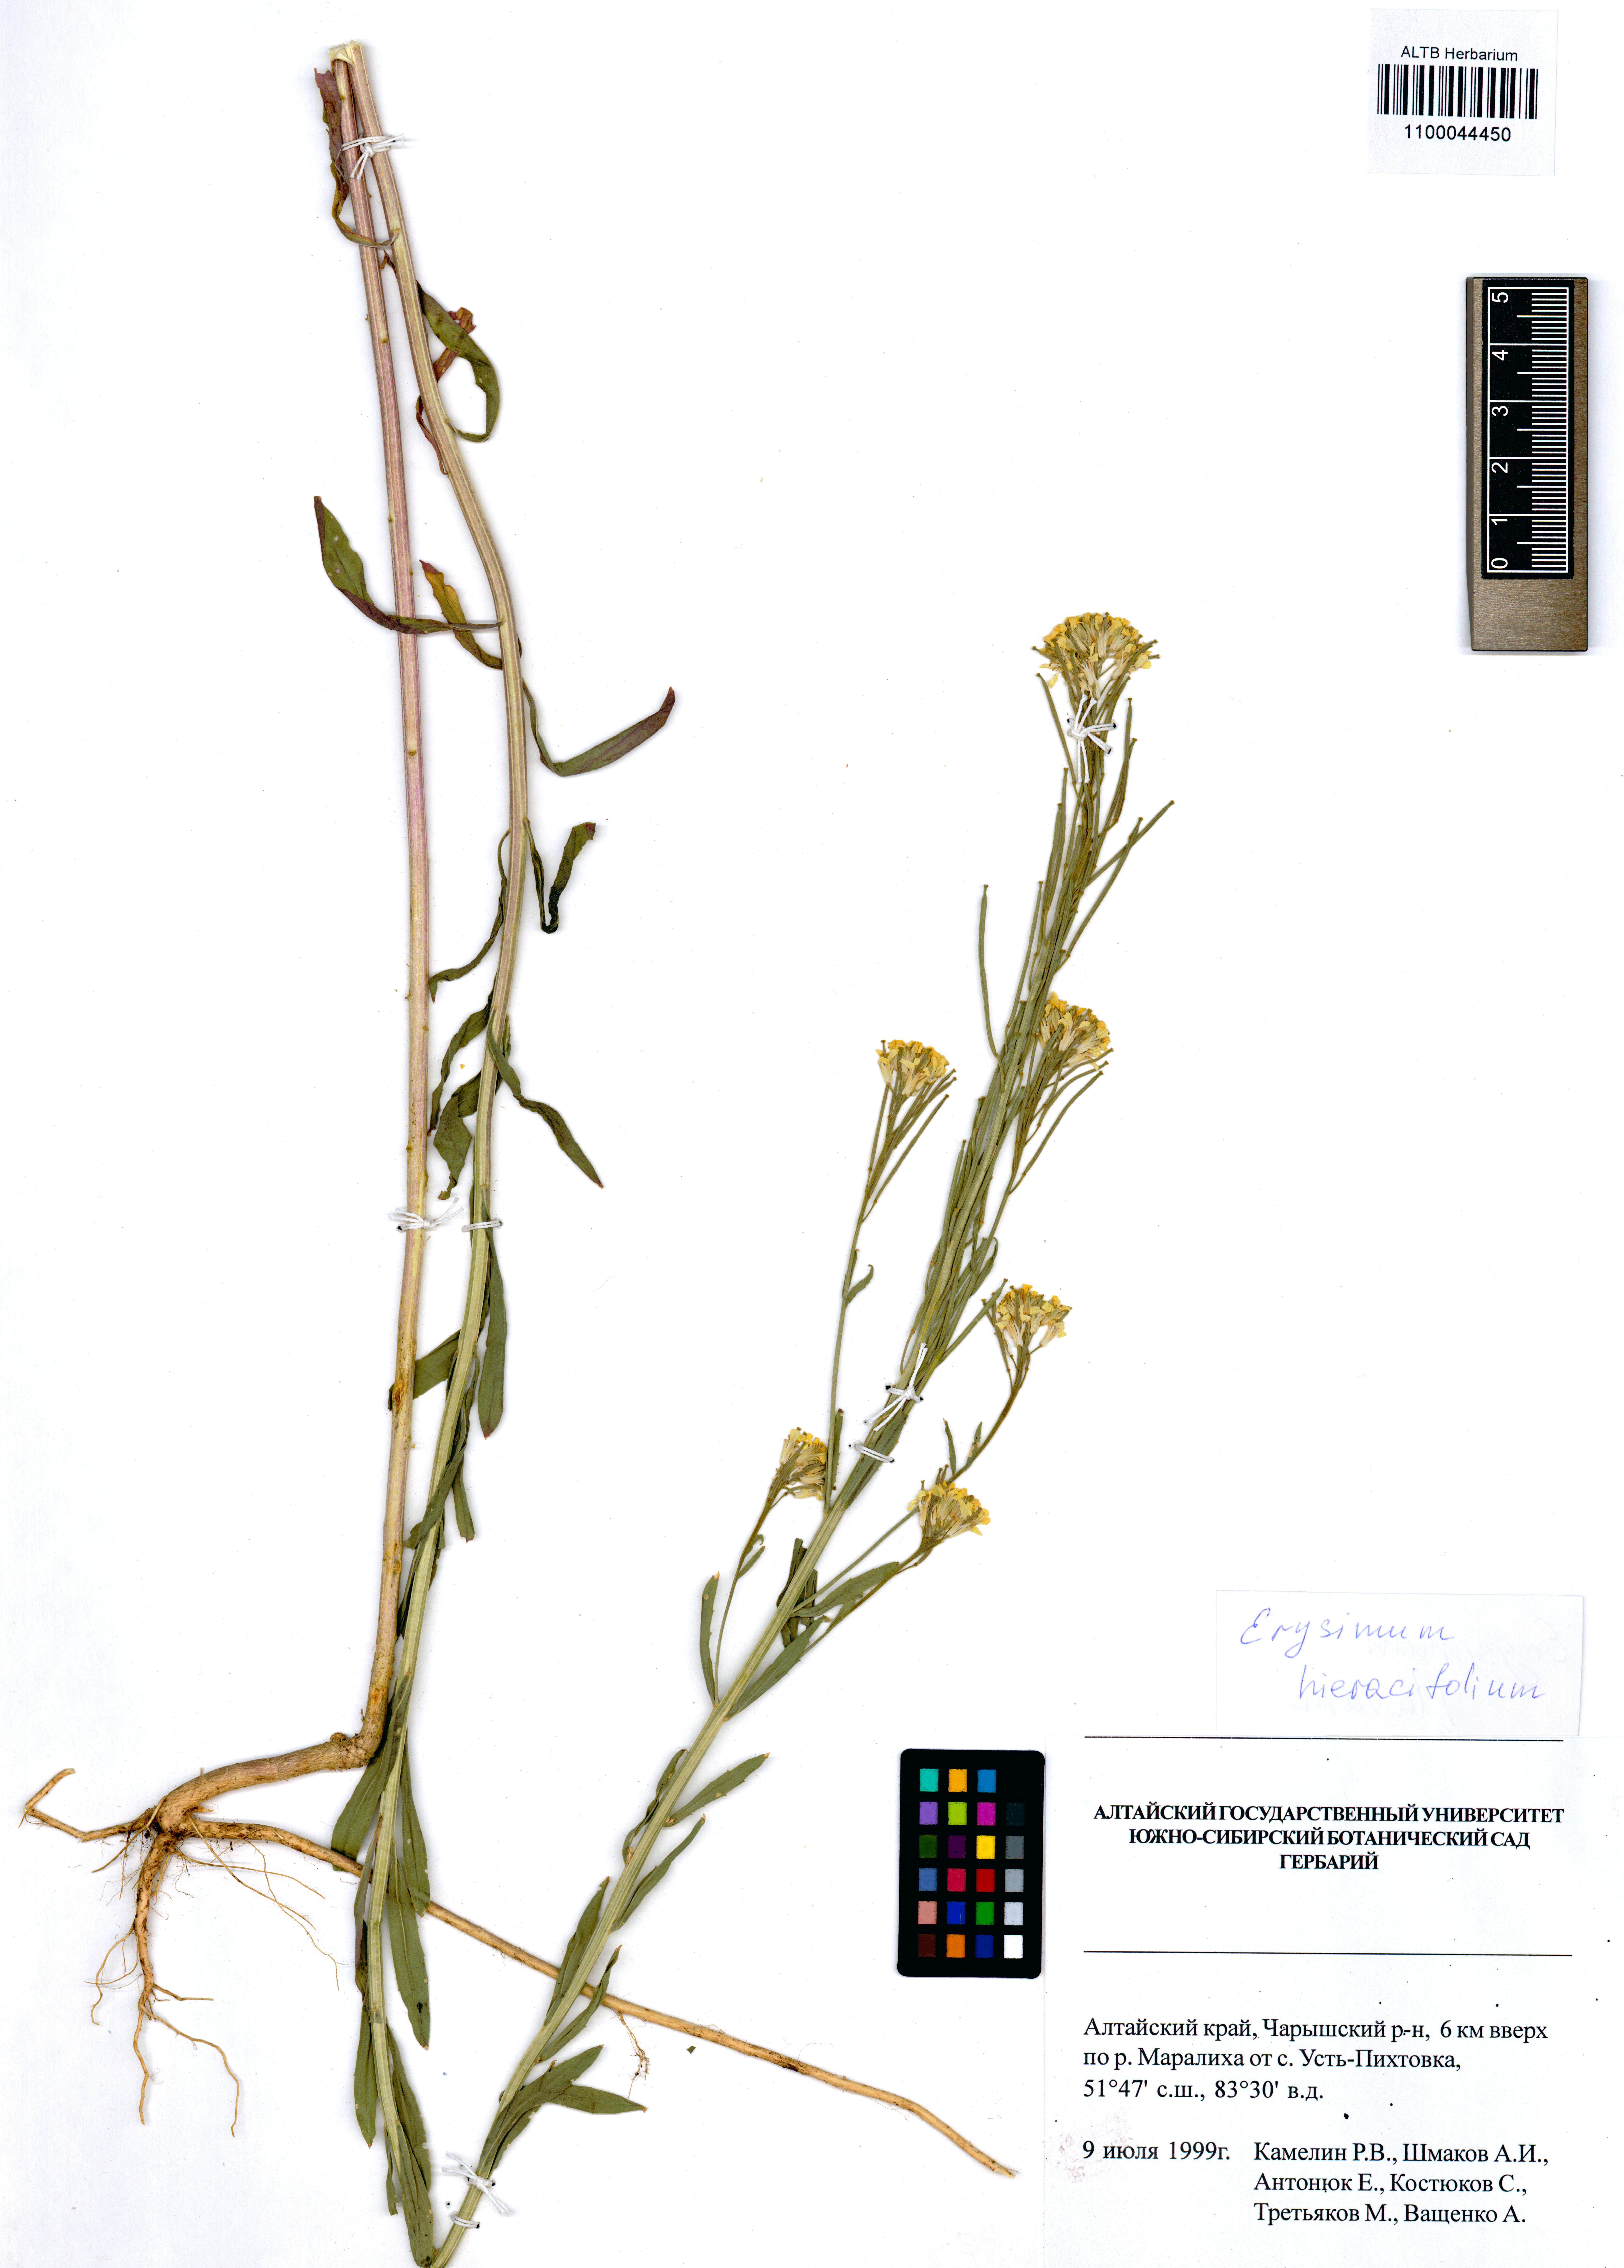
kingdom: Plantae
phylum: Tracheophyta
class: Magnoliopsida
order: Brassicales
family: Brassicaceae
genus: Erysimum
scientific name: Erysimum hieraciifolium
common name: European wallflower
